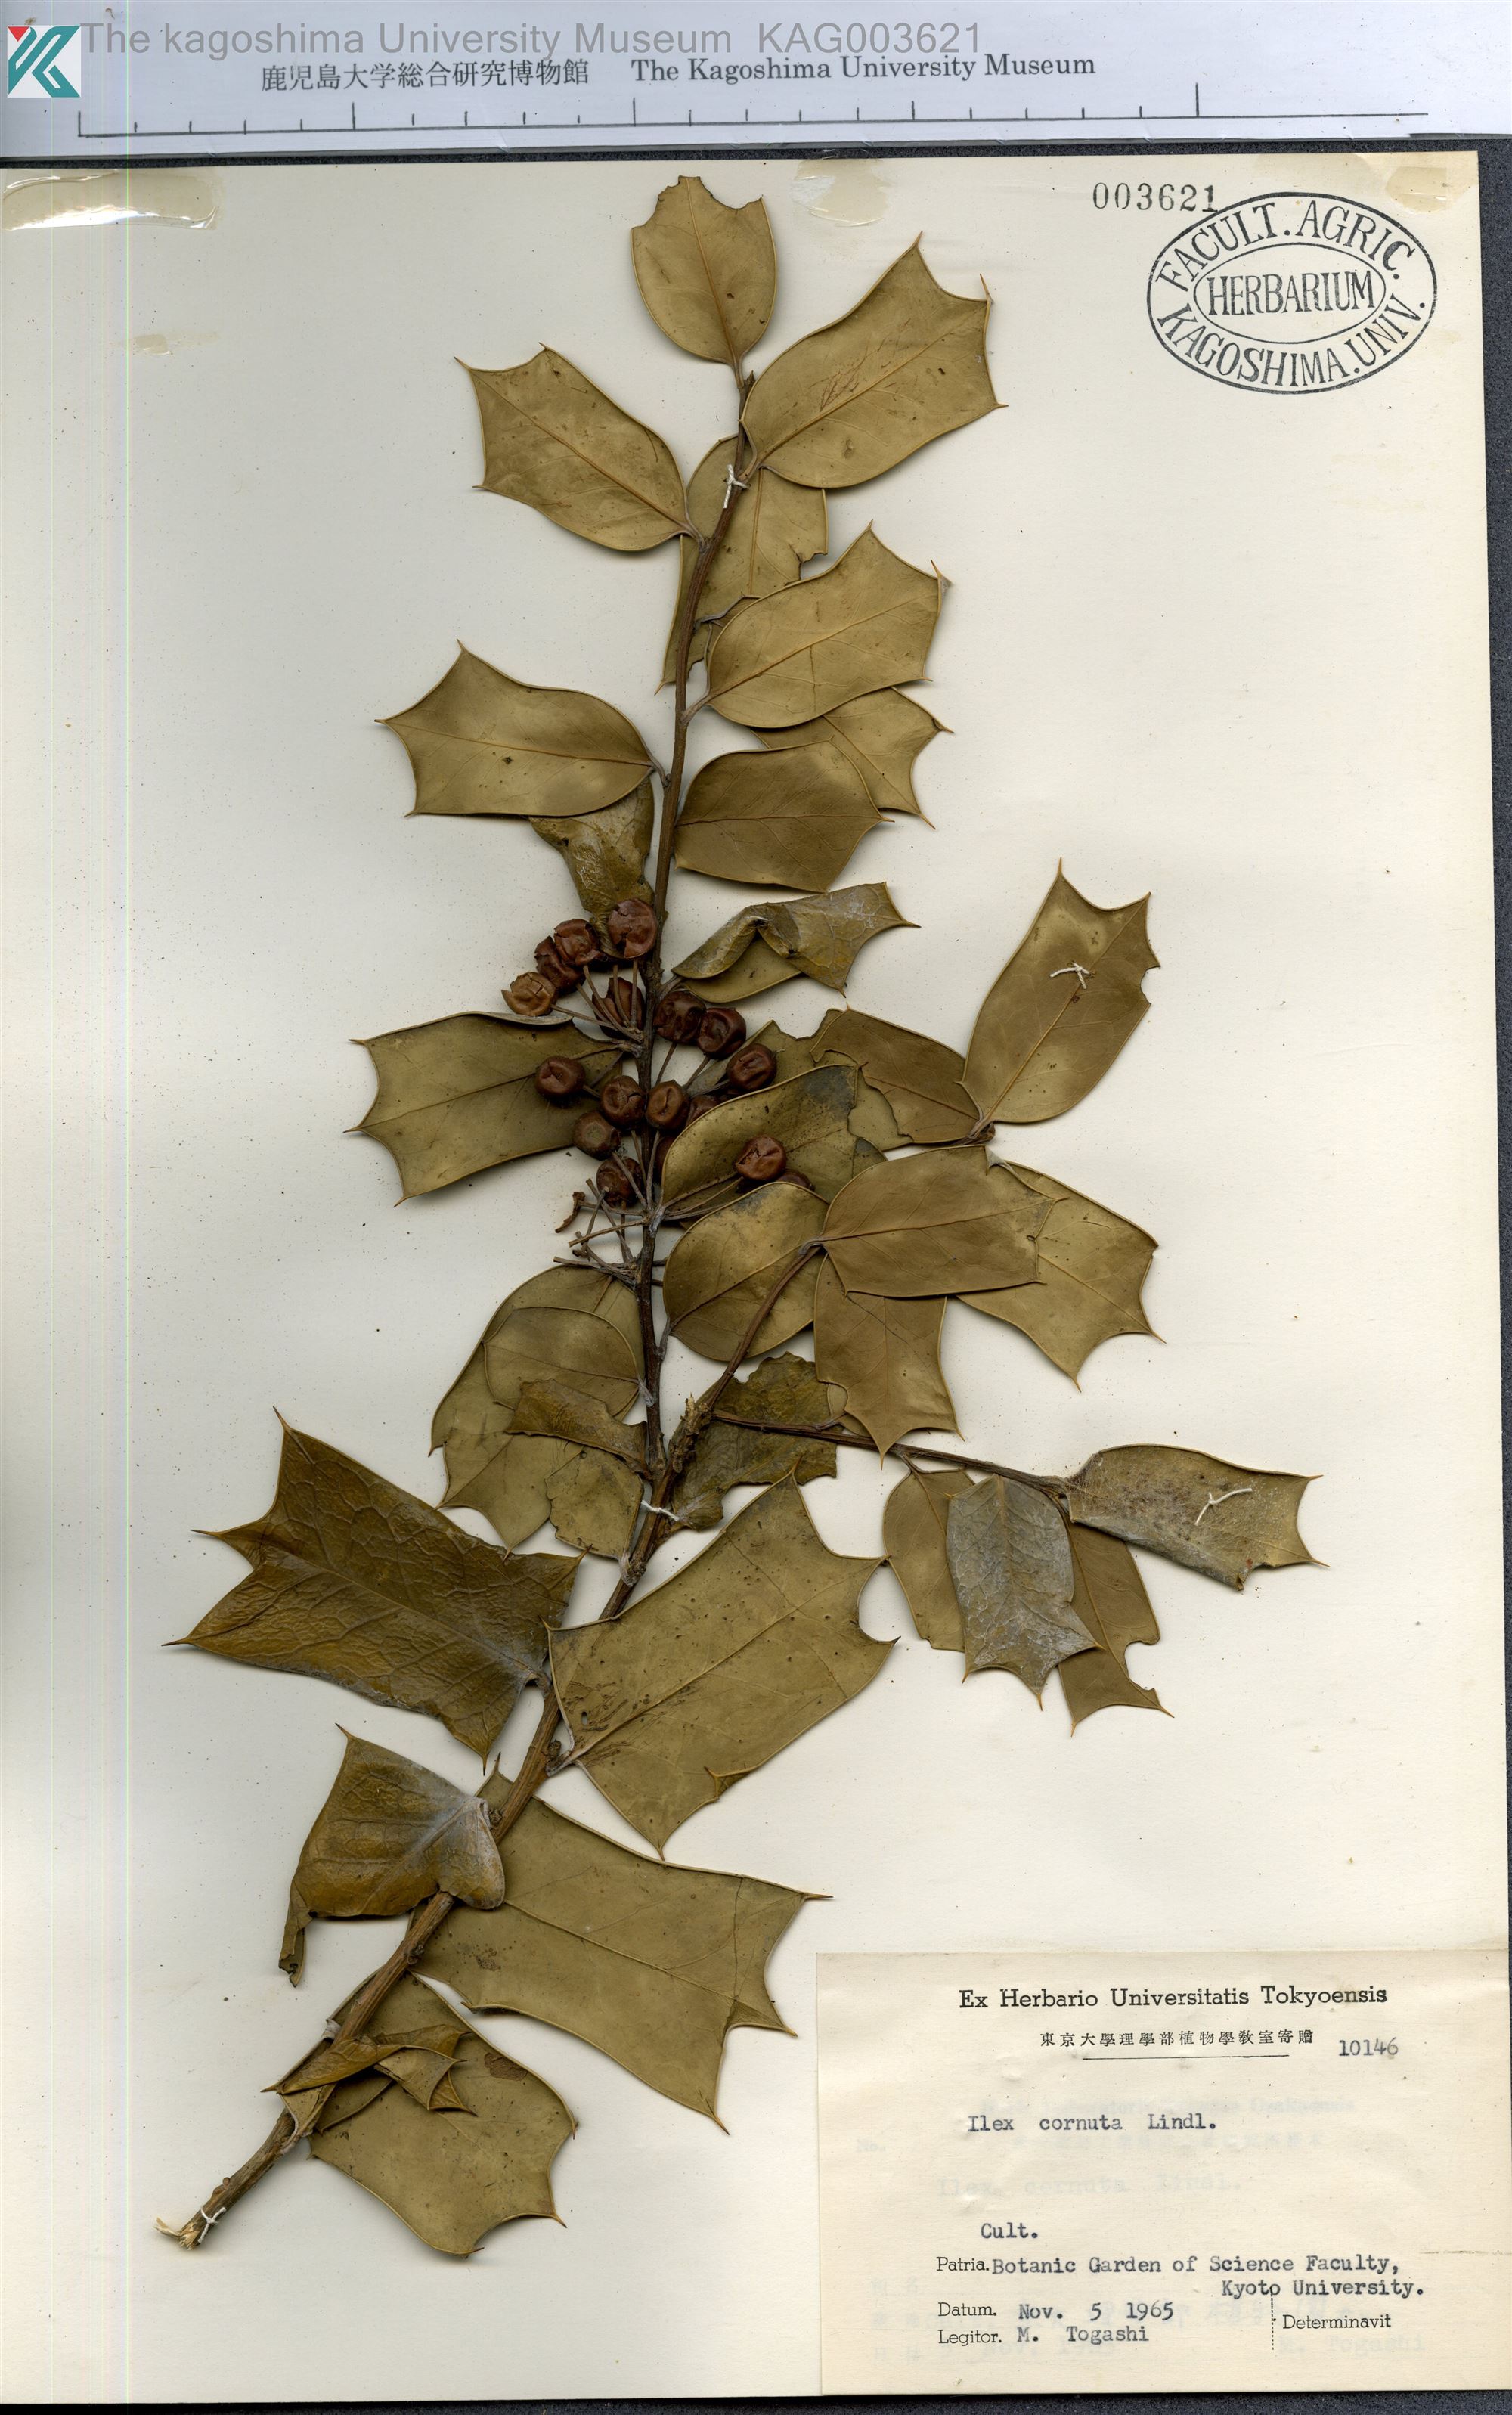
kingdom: Plantae
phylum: Tracheophyta
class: Magnoliopsida
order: Aquifoliales
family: Aquifoliaceae
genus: Ilex
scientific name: Ilex cornuta
